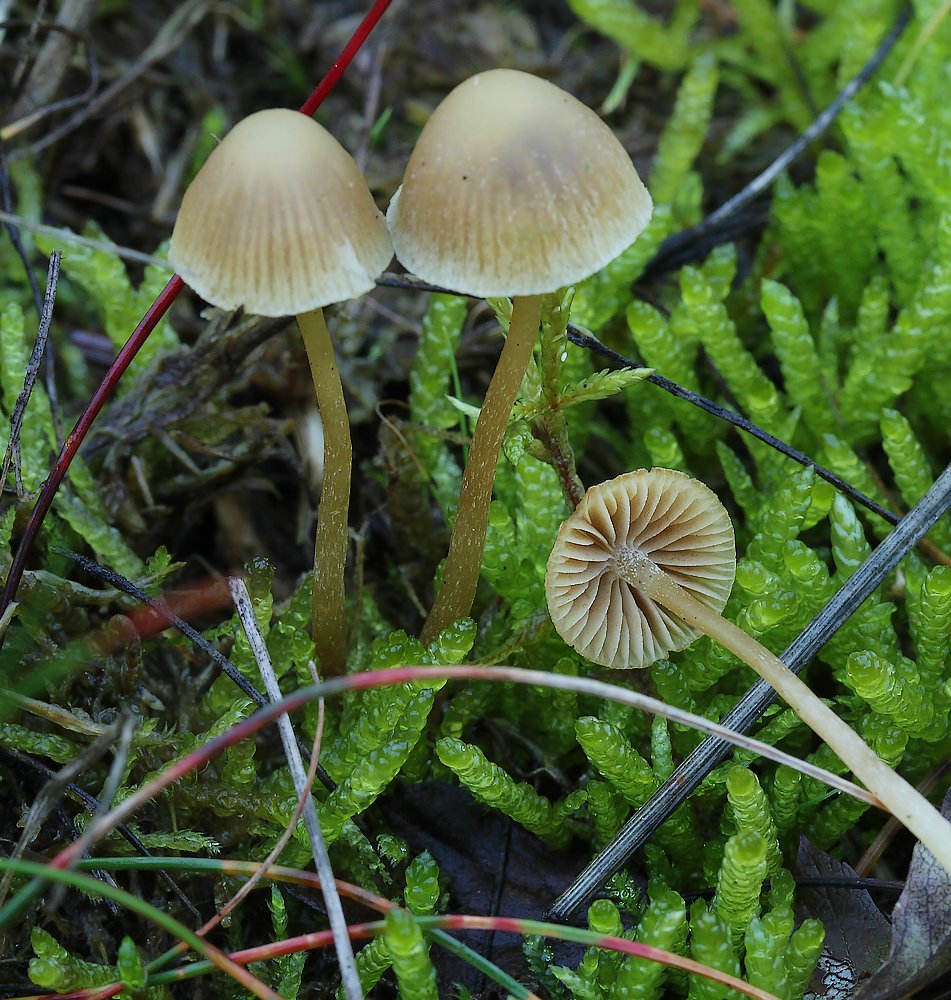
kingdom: Fungi
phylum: Basidiomycota
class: Agaricomycetes
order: Agaricales
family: Hymenogastraceae
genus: Galerina
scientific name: Galerina
